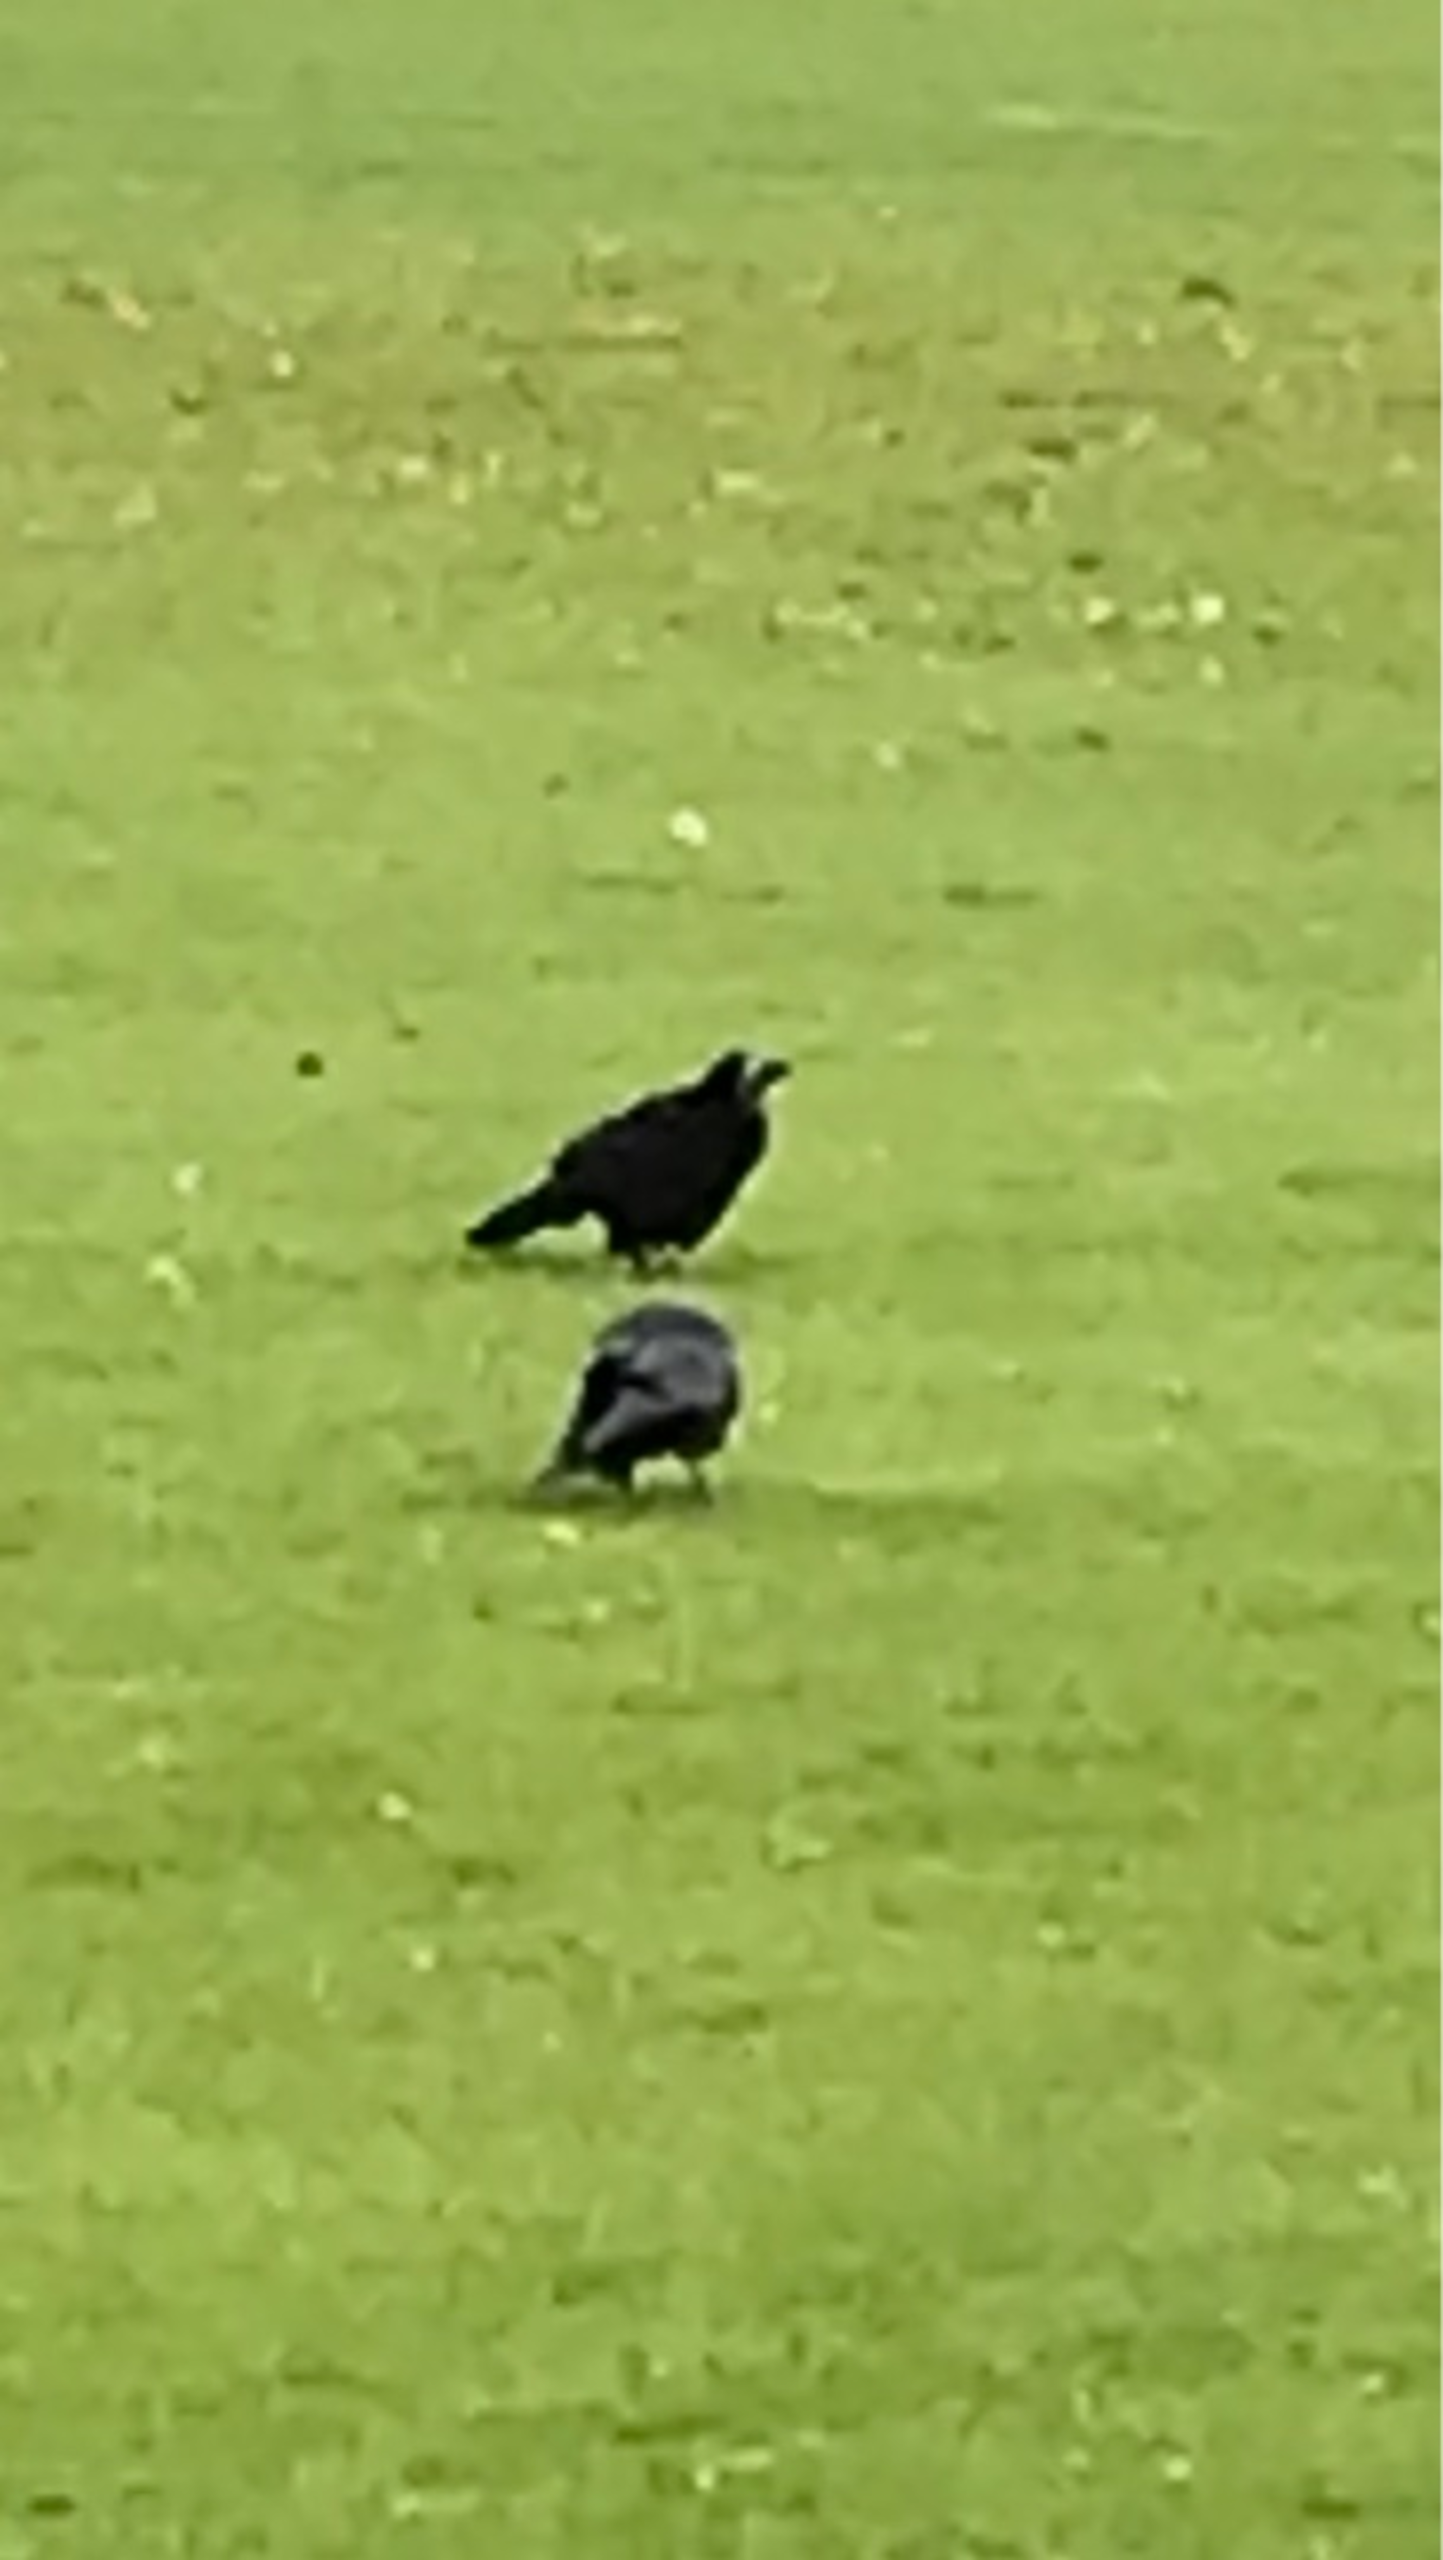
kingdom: Animalia
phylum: Chordata
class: Aves
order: Passeriformes
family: Corvidae
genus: Corvus
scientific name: Corvus frugilegus
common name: Råge
